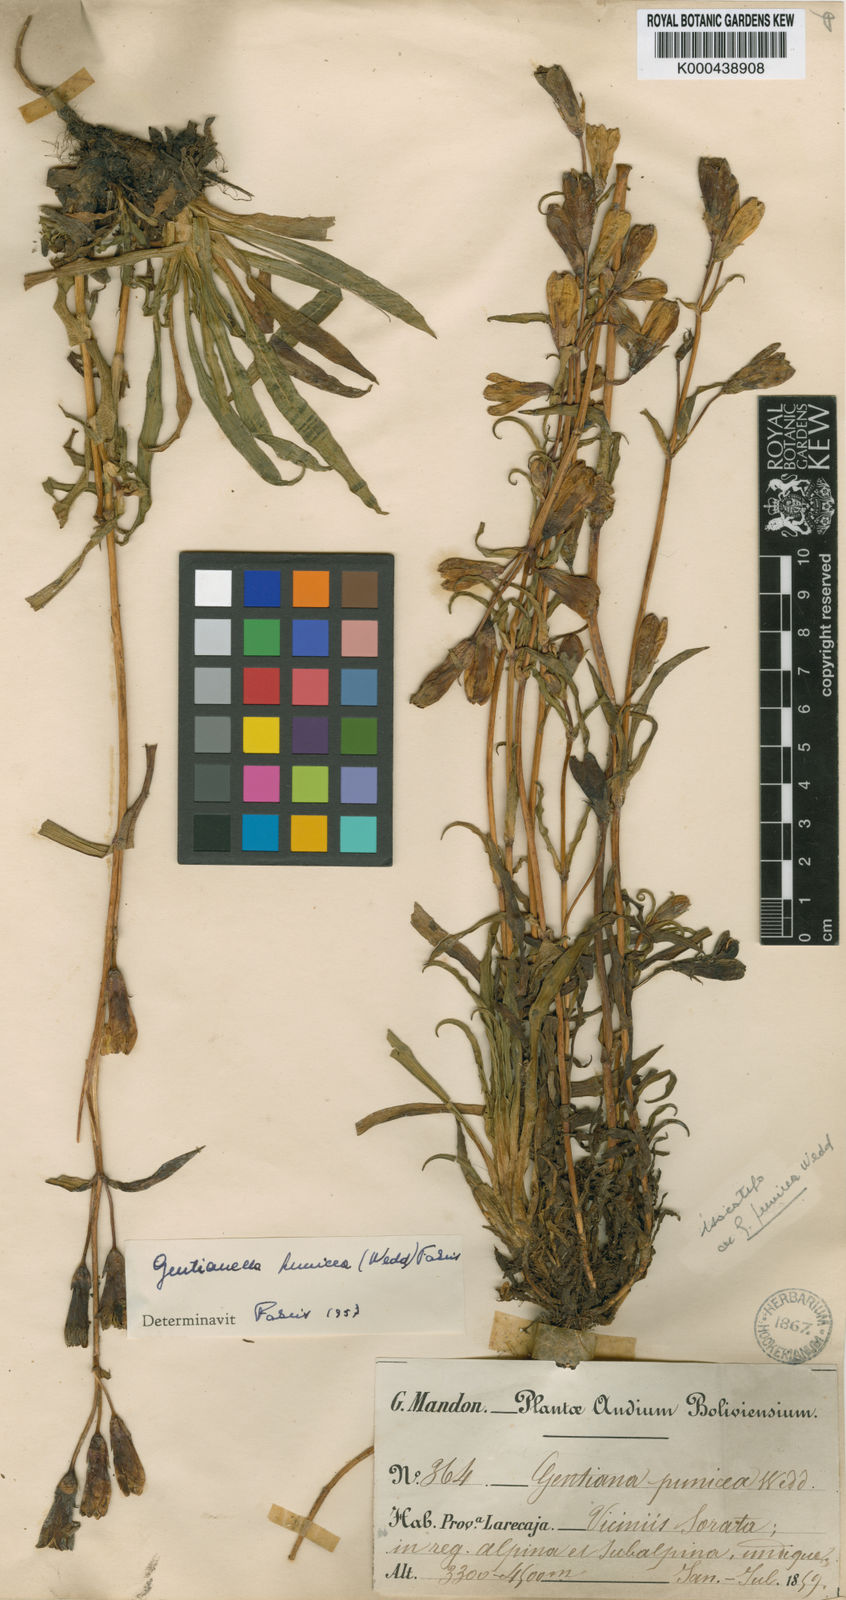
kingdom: Plantae
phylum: Tracheophyta
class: Magnoliopsida
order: Gentianales
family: Gentianaceae
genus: Gentianella
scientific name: Gentianella punicea
